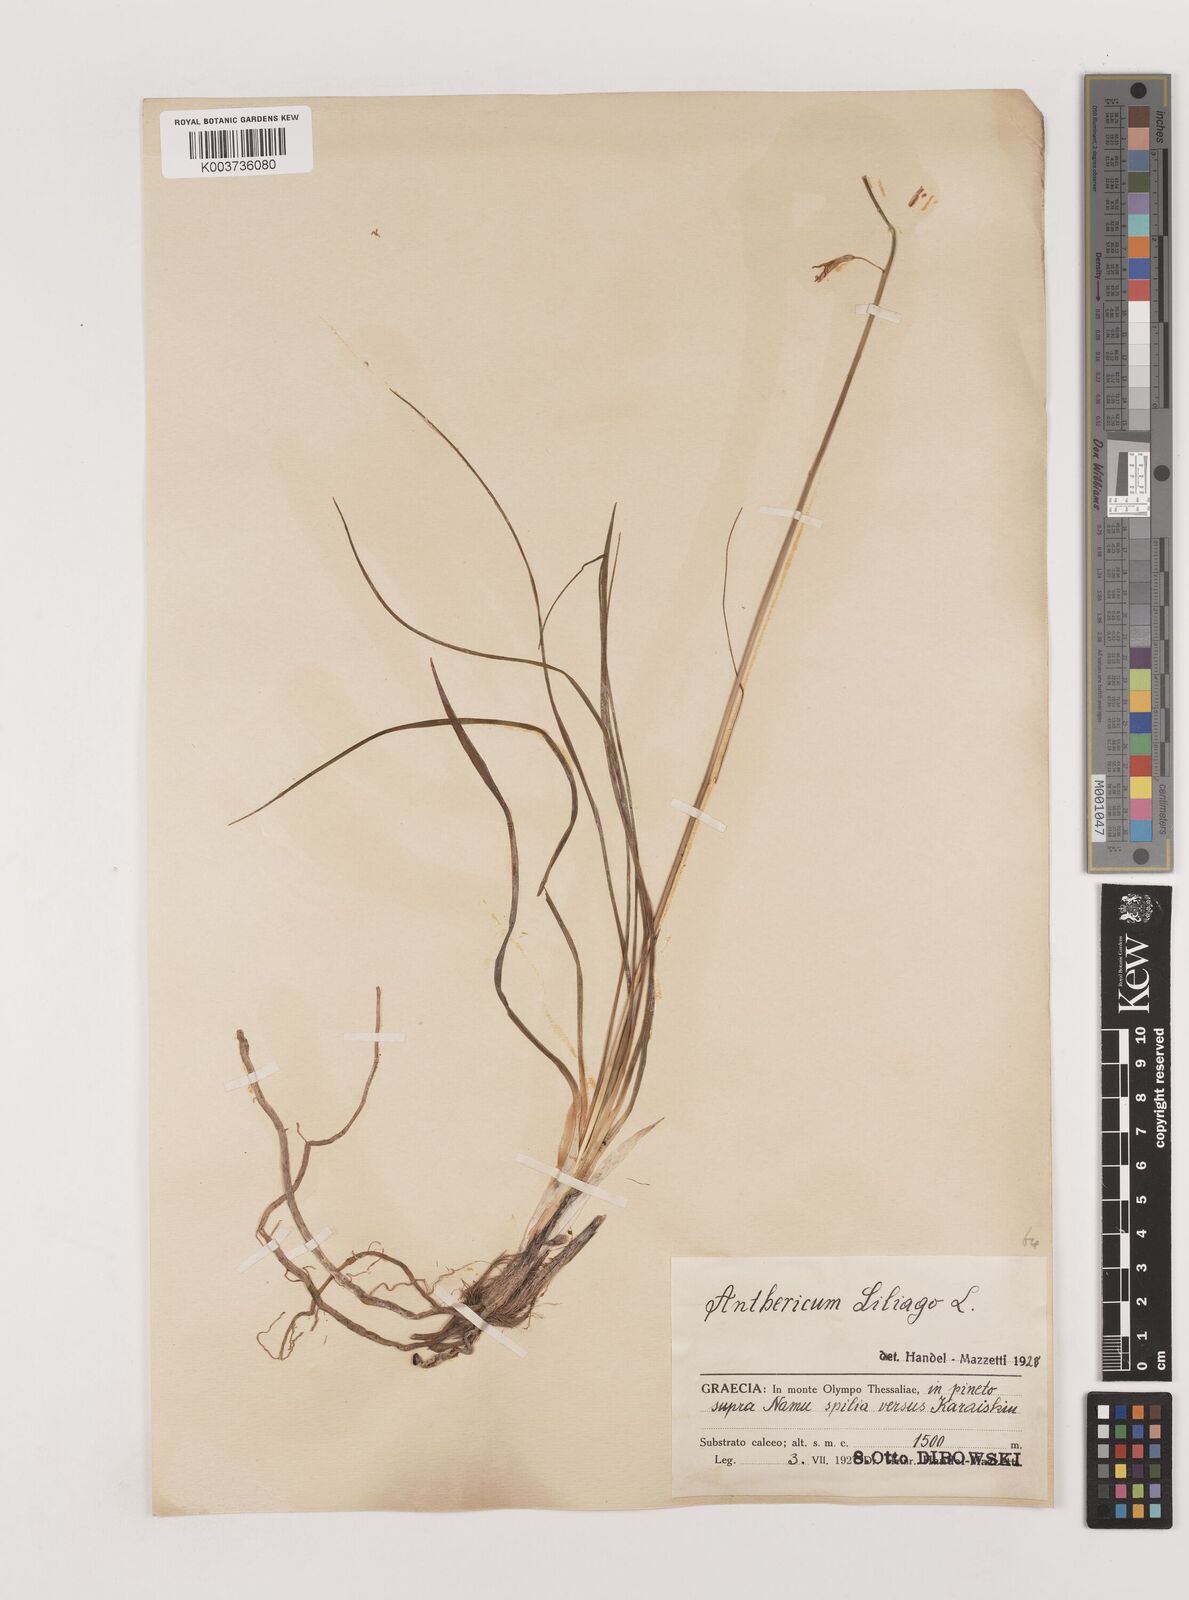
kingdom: Plantae
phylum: Tracheophyta
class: Liliopsida
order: Asparagales
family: Asparagaceae
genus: Anthericum
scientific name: Anthericum liliago
